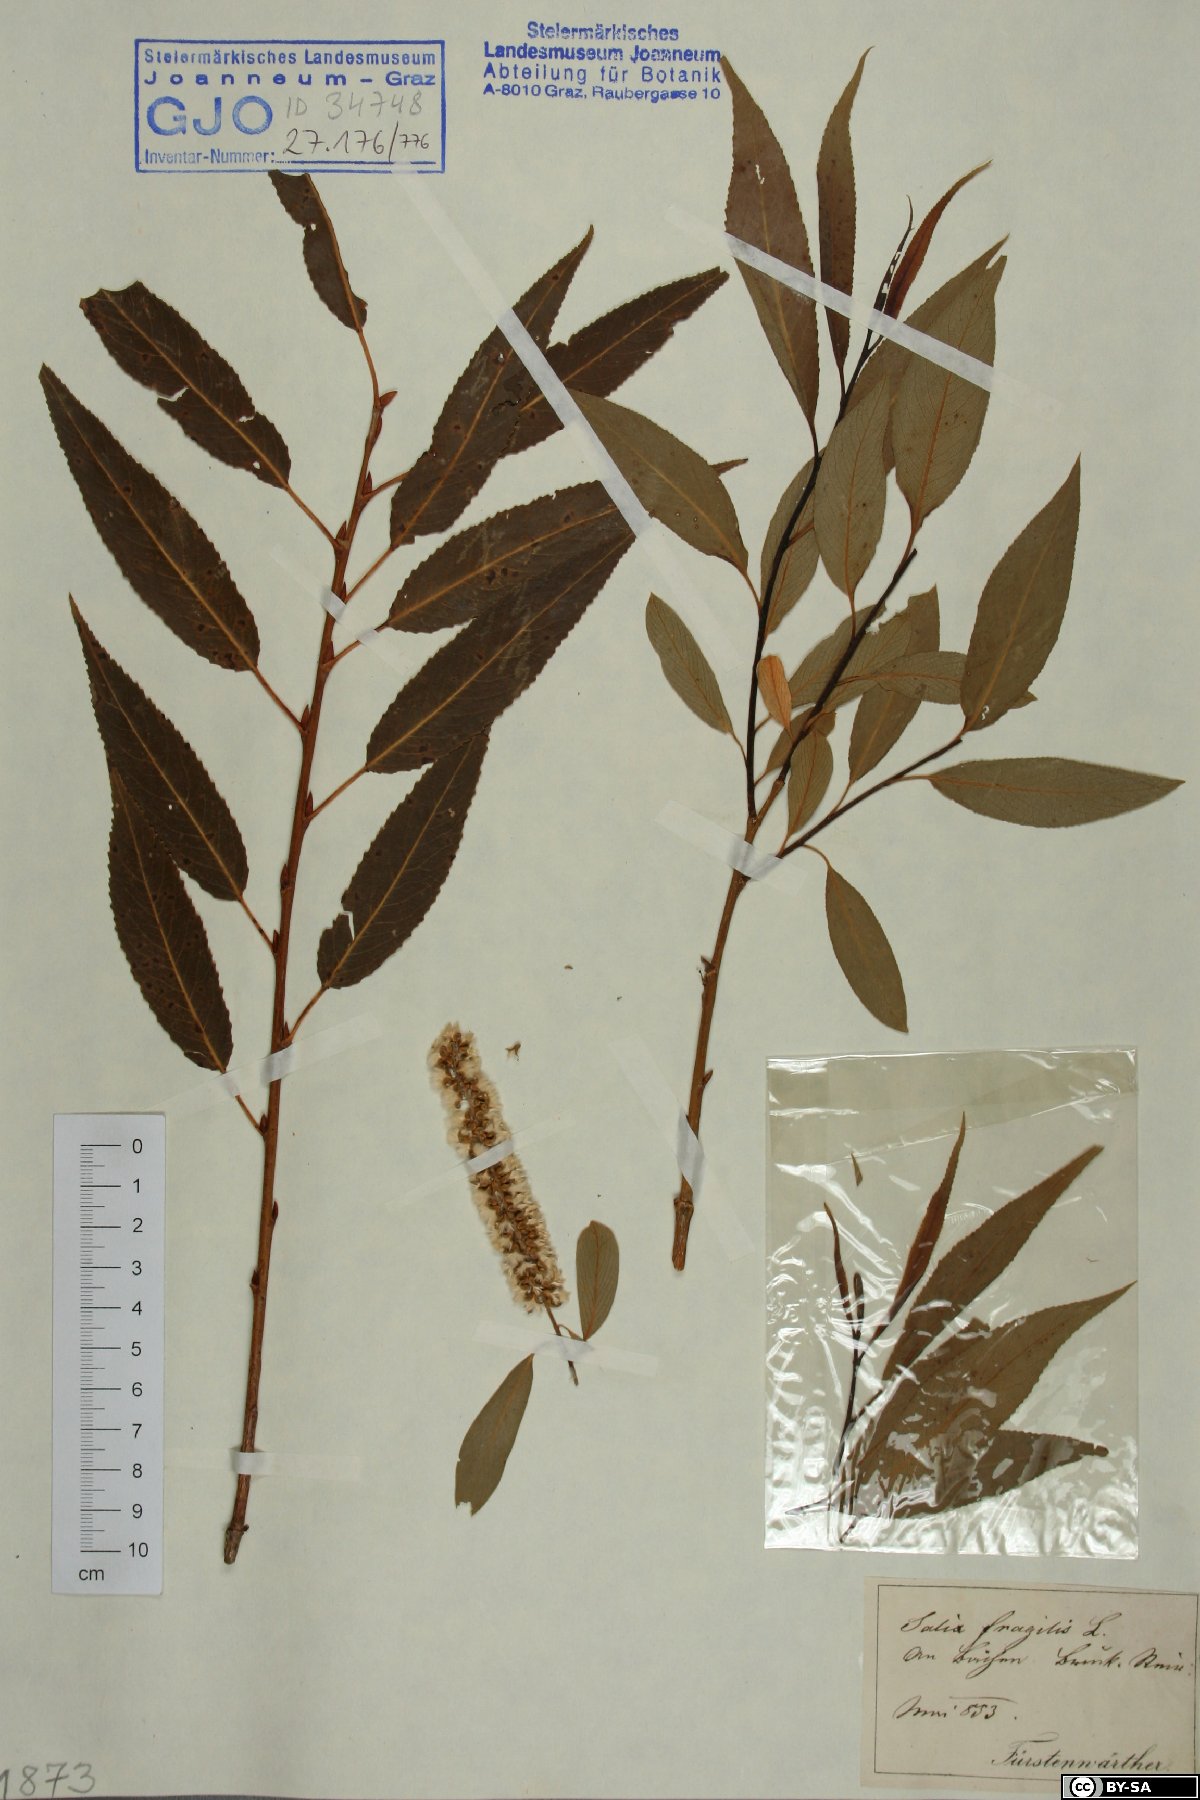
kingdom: Plantae
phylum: Tracheophyta
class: Magnoliopsida
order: Malpighiales
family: Salicaceae
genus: Salix
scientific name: Salix fragilis
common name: Crack willow
